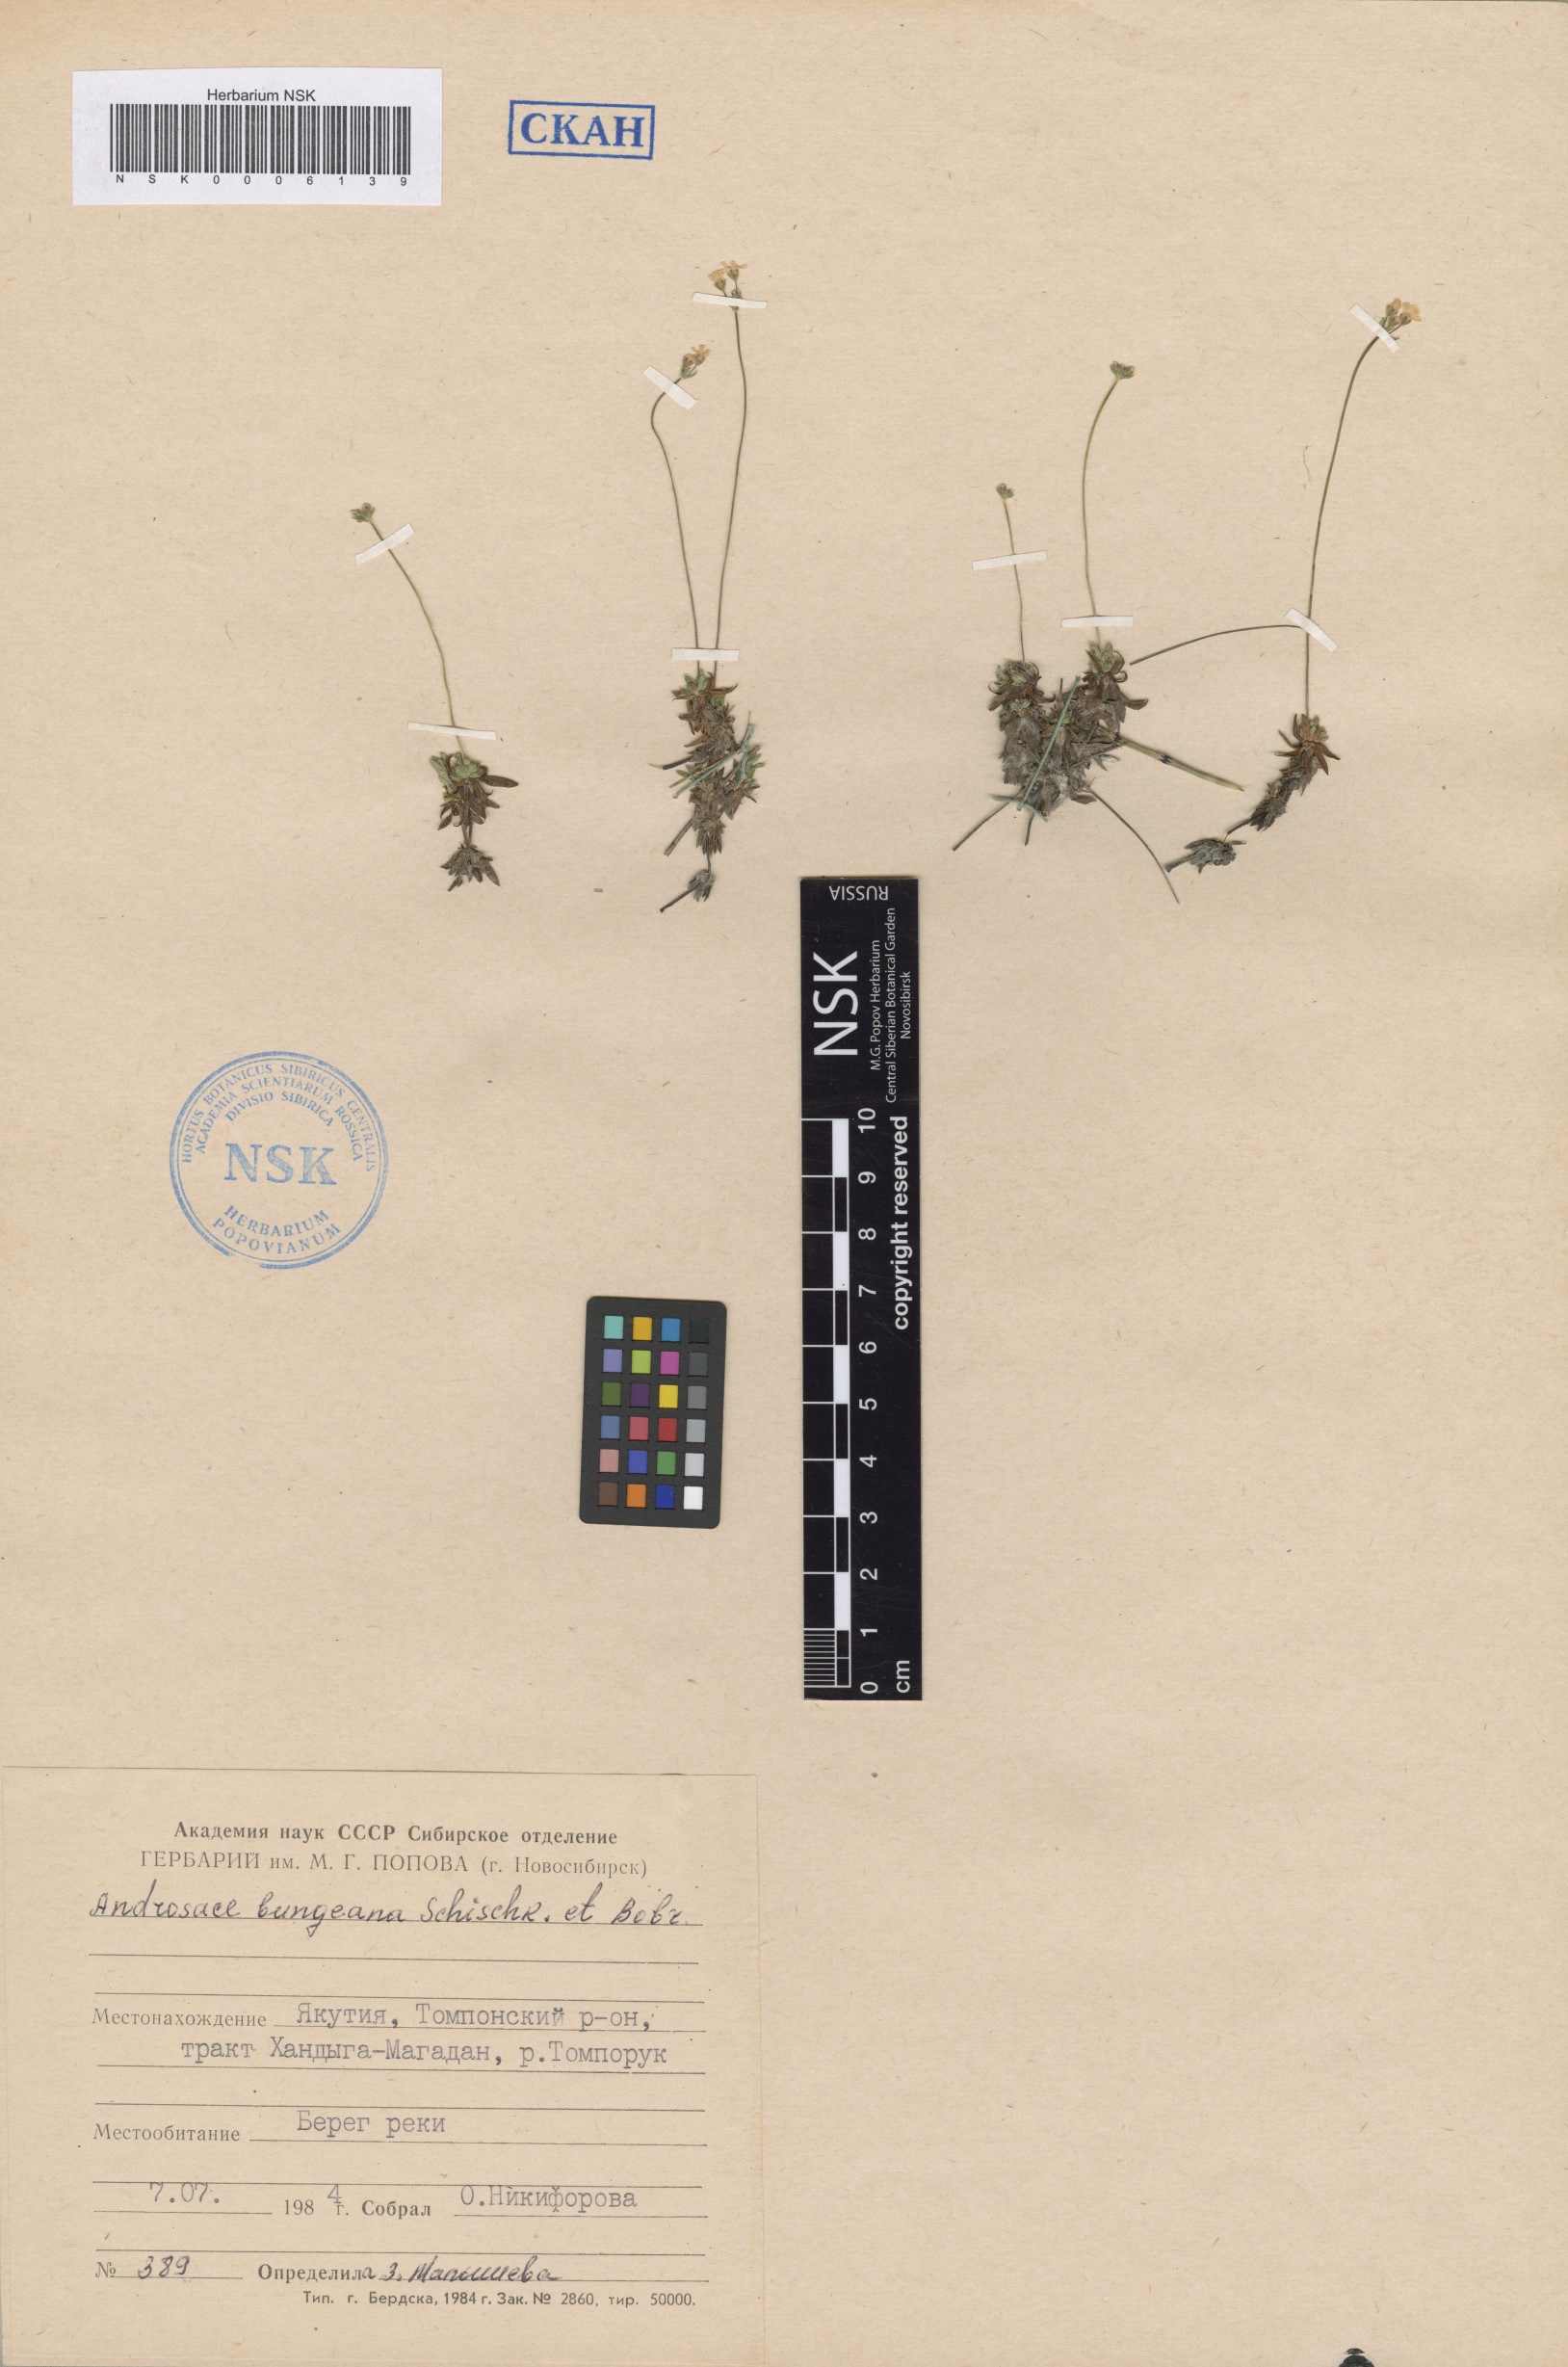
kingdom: Plantae
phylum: Tracheophyta
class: Magnoliopsida
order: Ericales
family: Primulaceae
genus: Androsace
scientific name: Androsace bungeana
